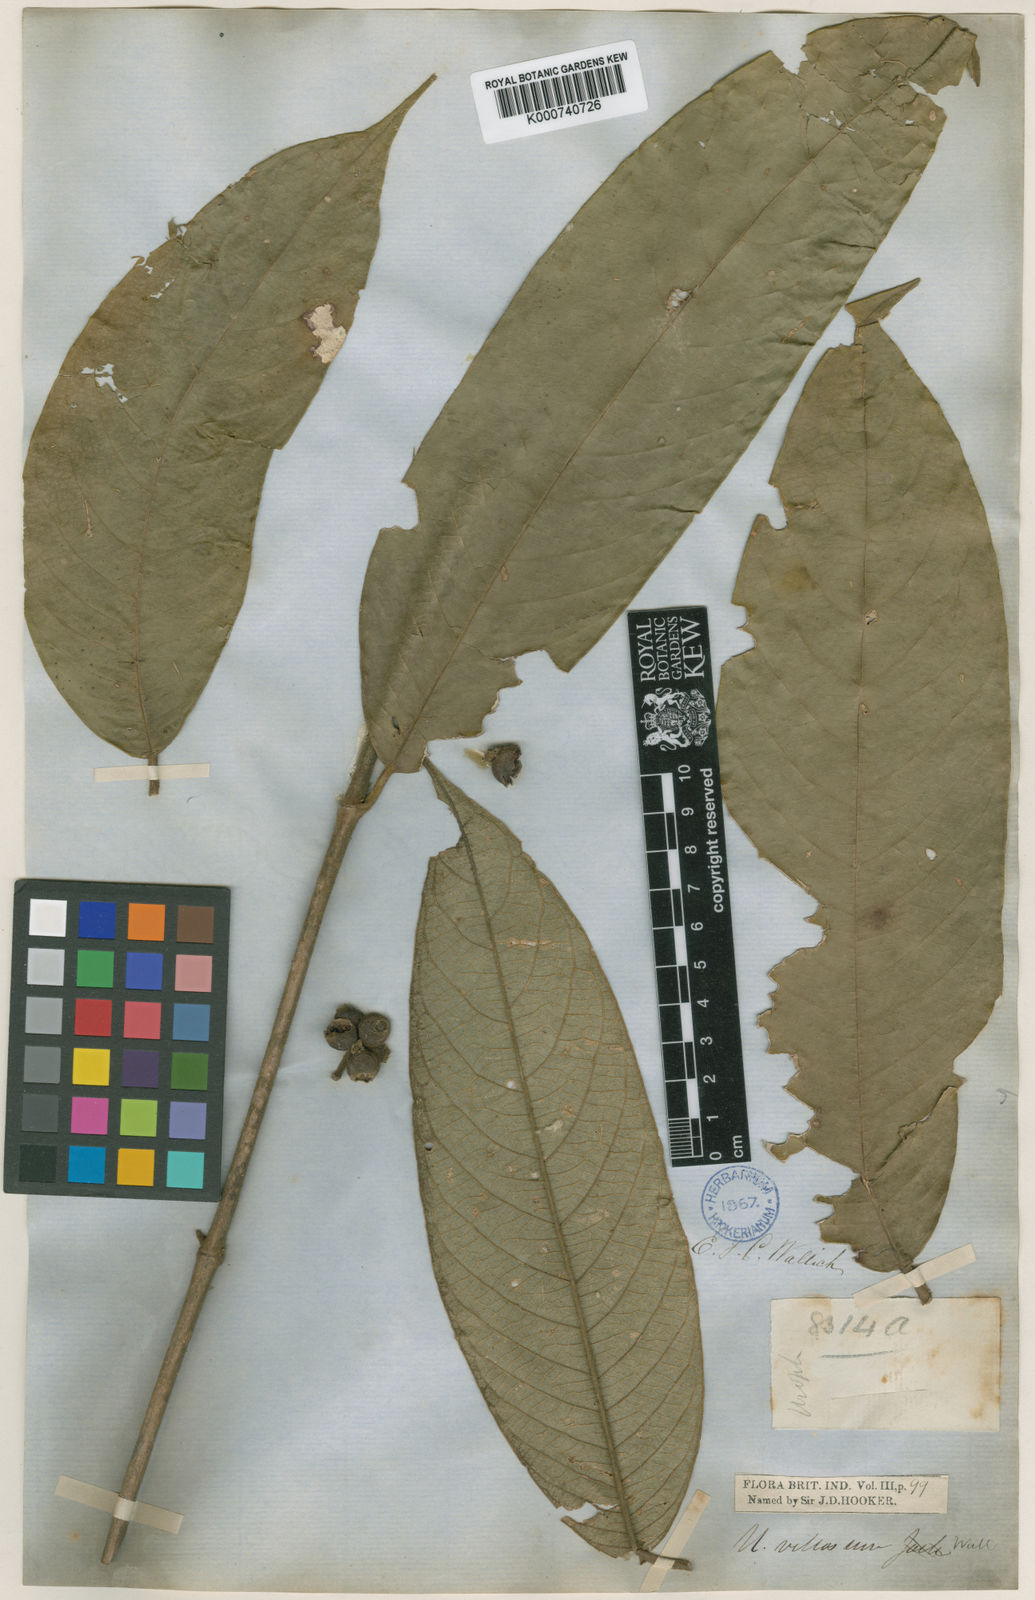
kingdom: Plantae
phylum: Tracheophyta
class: Magnoliopsida
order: Gentianales
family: Rubiaceae
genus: Urophyllum
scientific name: Urophyllum villosum
